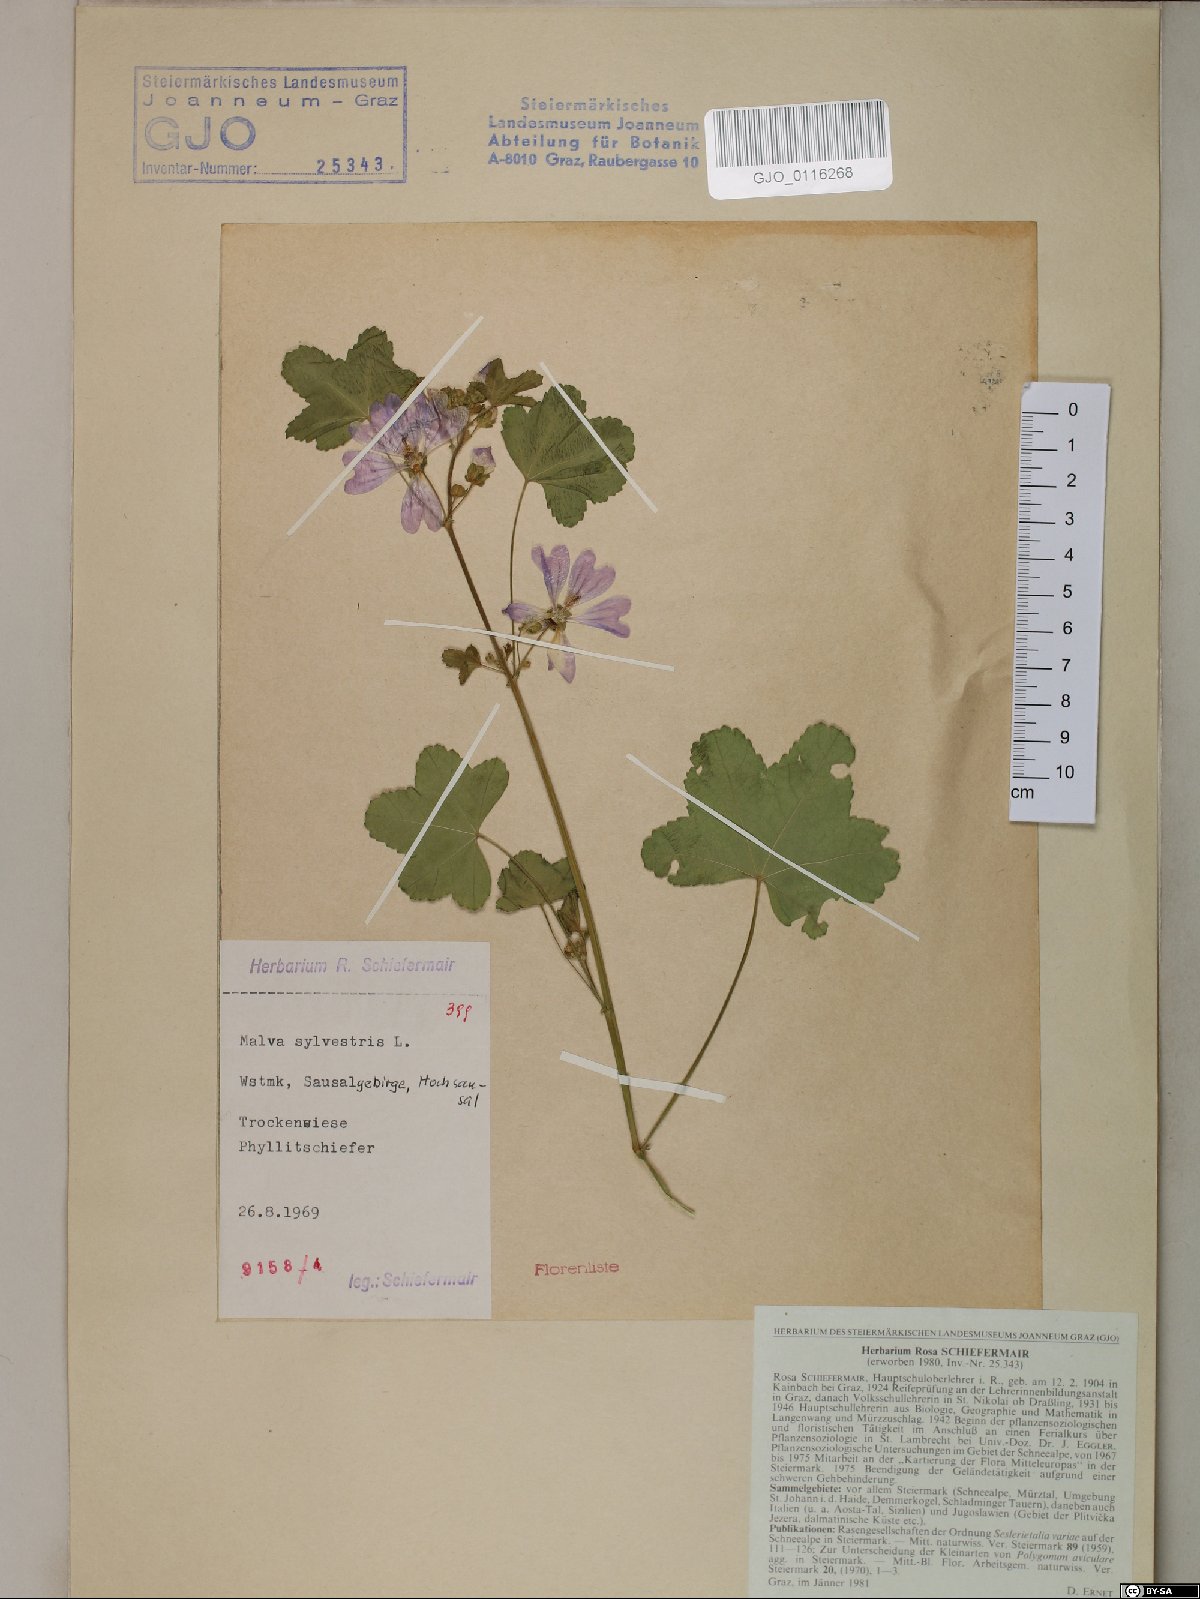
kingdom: Plantae
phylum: Tracheophyta
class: Magnoliopsida
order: Malvales
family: Malvaceae
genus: Malva
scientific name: Malva sylvestris
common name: Common mallow
